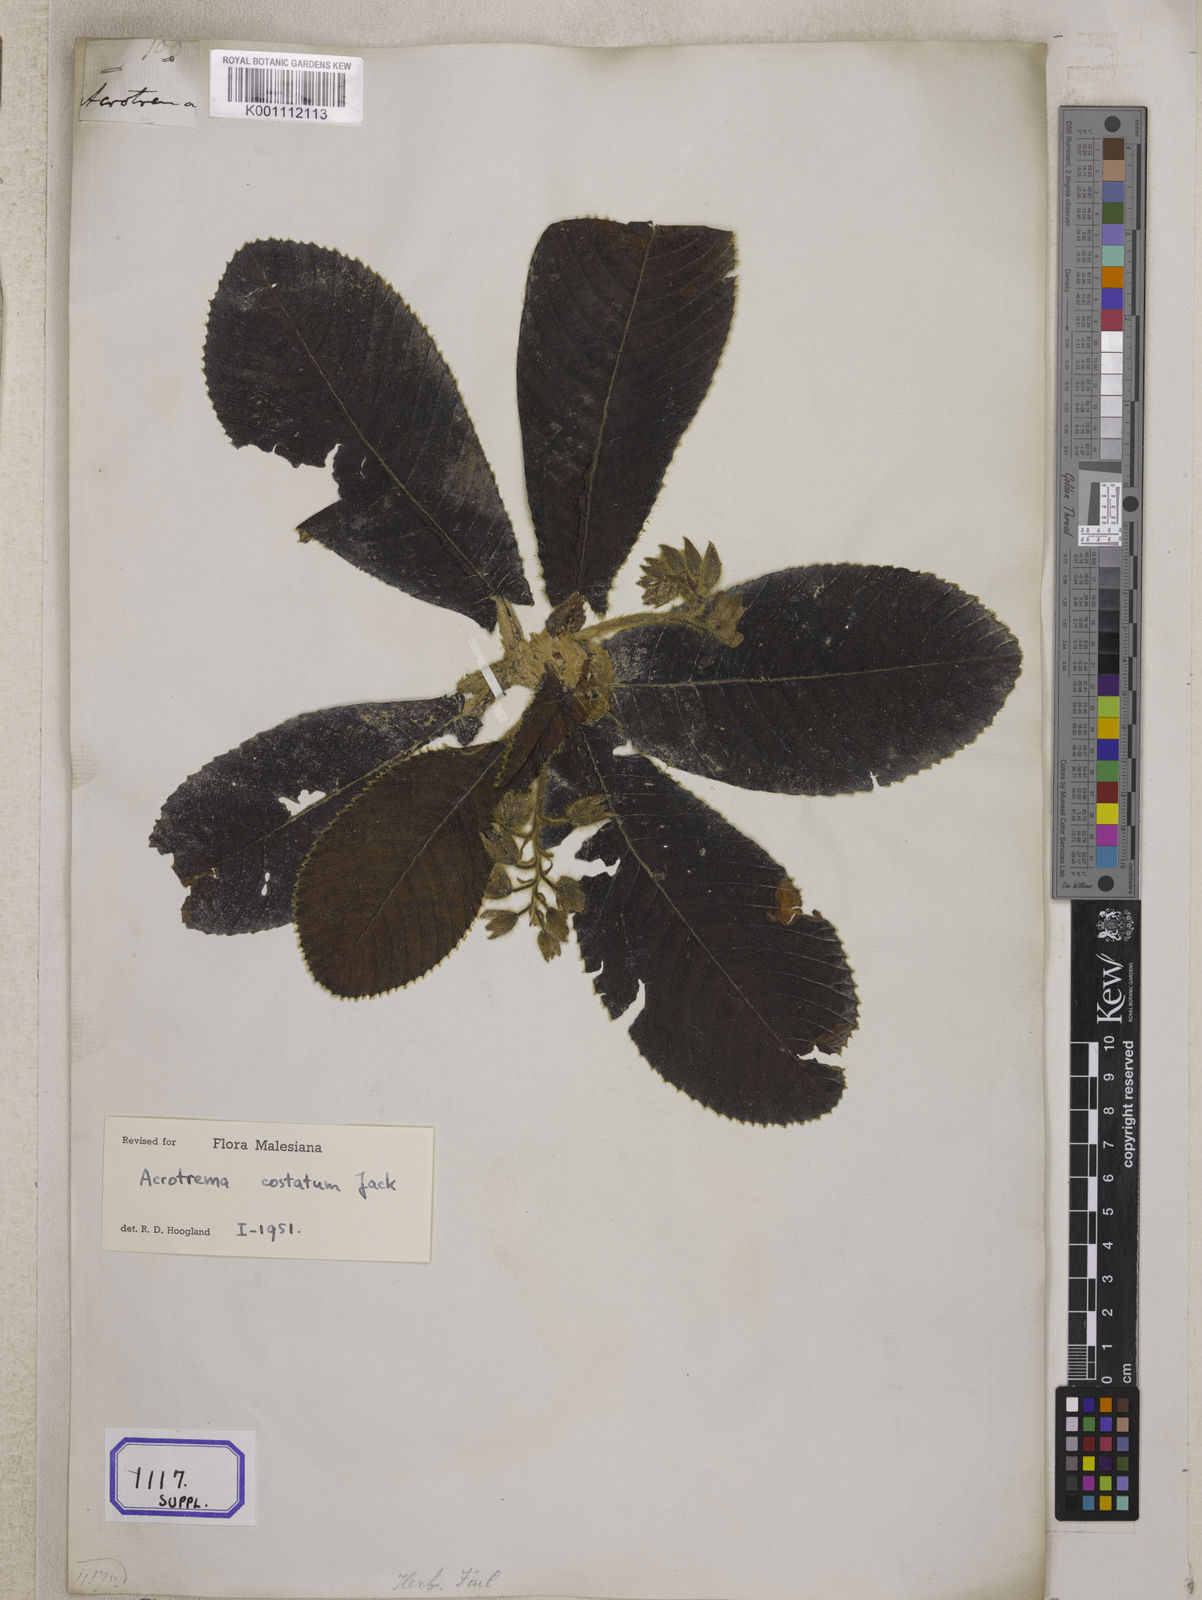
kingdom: Plantae
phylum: Tracheophyta
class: Magnoliopsida
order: Dilleniales
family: Dilleniaceae
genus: Acrotrema
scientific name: Acrotrema costatum
